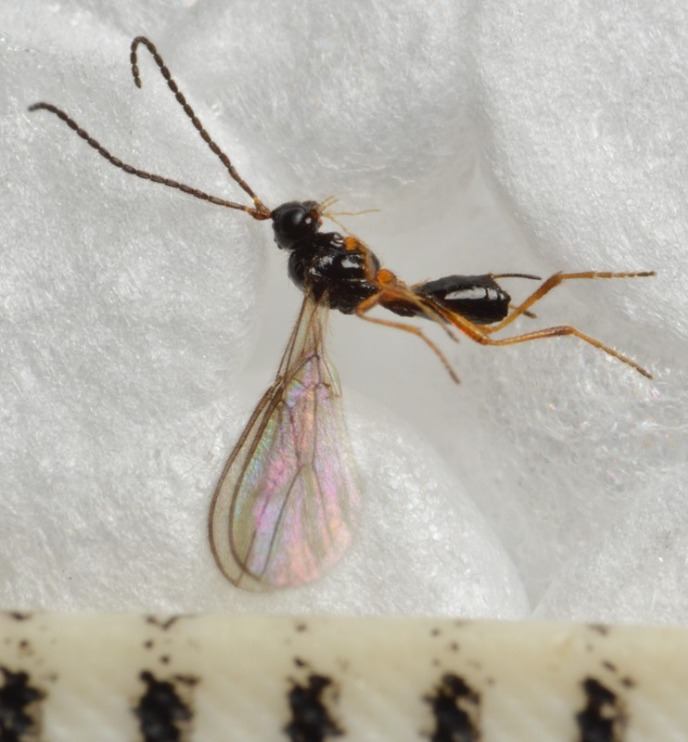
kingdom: Animalia
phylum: Arthropoda
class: Insecta
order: Hymenoptera
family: Braconidae
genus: Orthostigma
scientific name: Orthostigma laticeps
